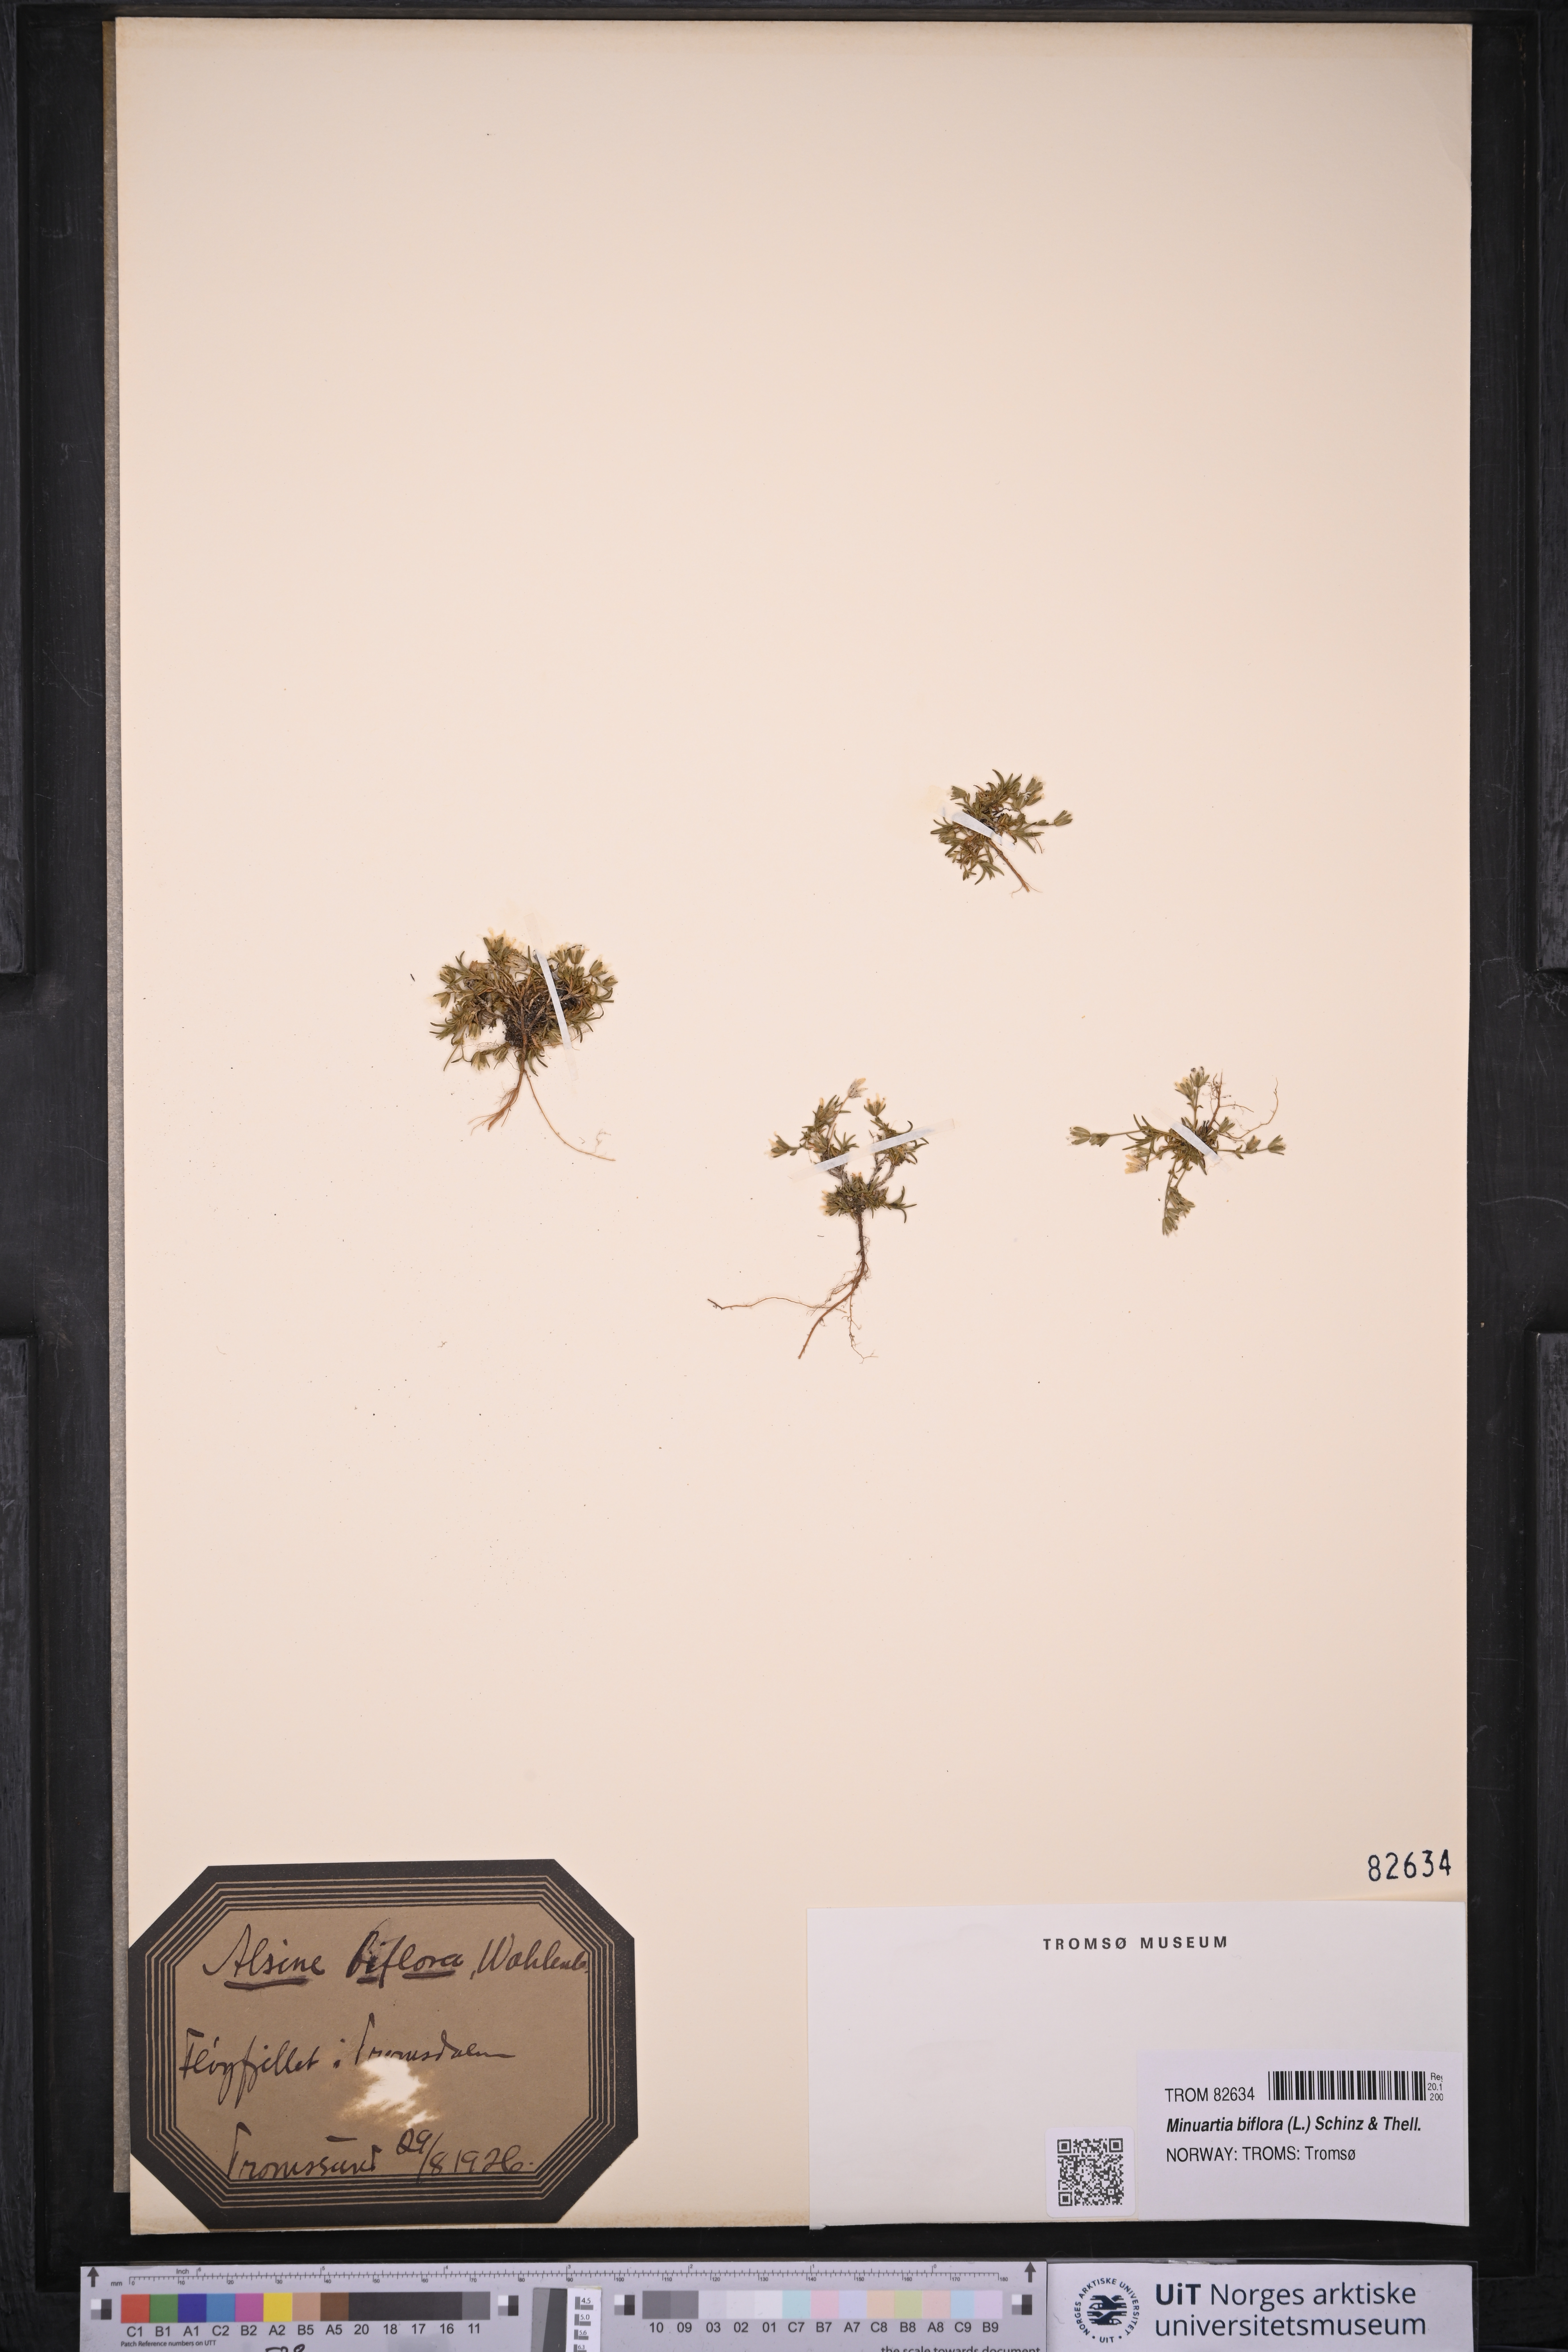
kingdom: Plantae
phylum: Tracheophyta
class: Magnoliopsida
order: Caryophyllales
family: Caryophyllaceae
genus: Cherleria
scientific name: Cherleria biflora
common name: Mountain sandwort
